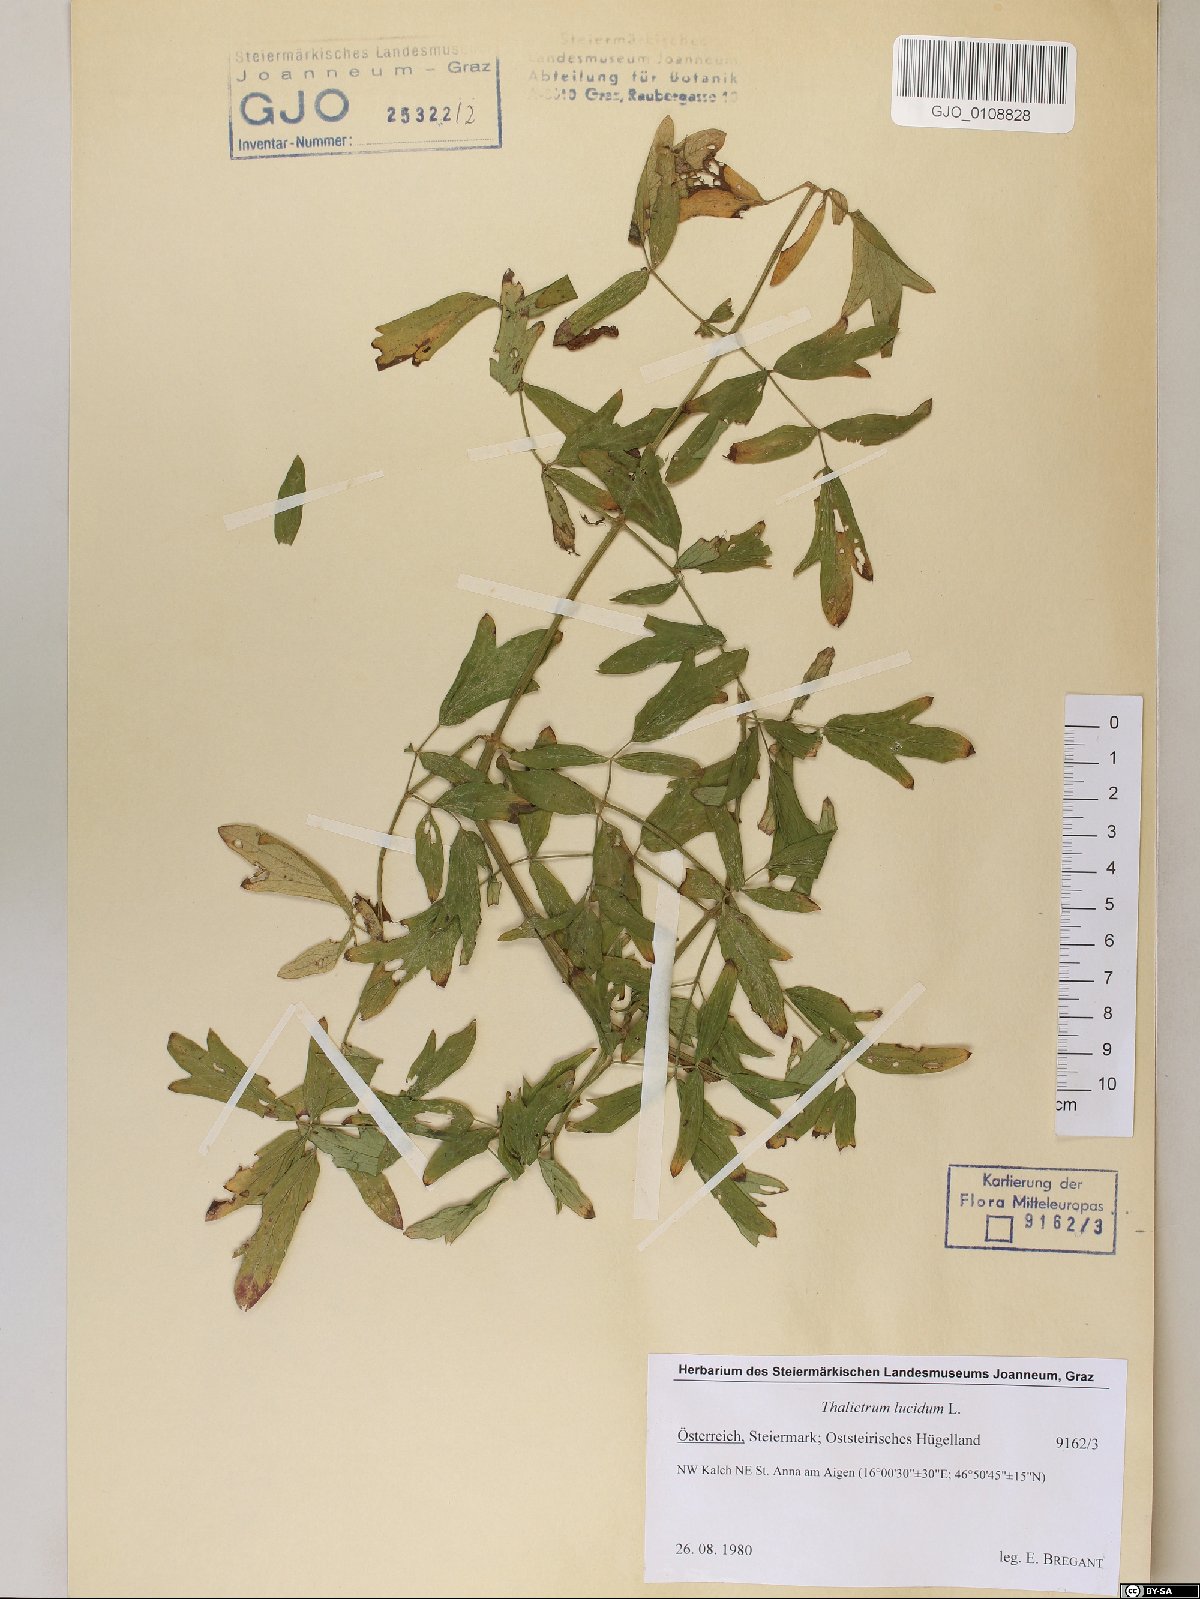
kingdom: Plantae
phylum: Tracheophyta
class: Magnoliopsida
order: Ranunculales
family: Ranunculaceae
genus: Thalictrum
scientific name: Thalictrum lucidum
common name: Shining meadow-rue
